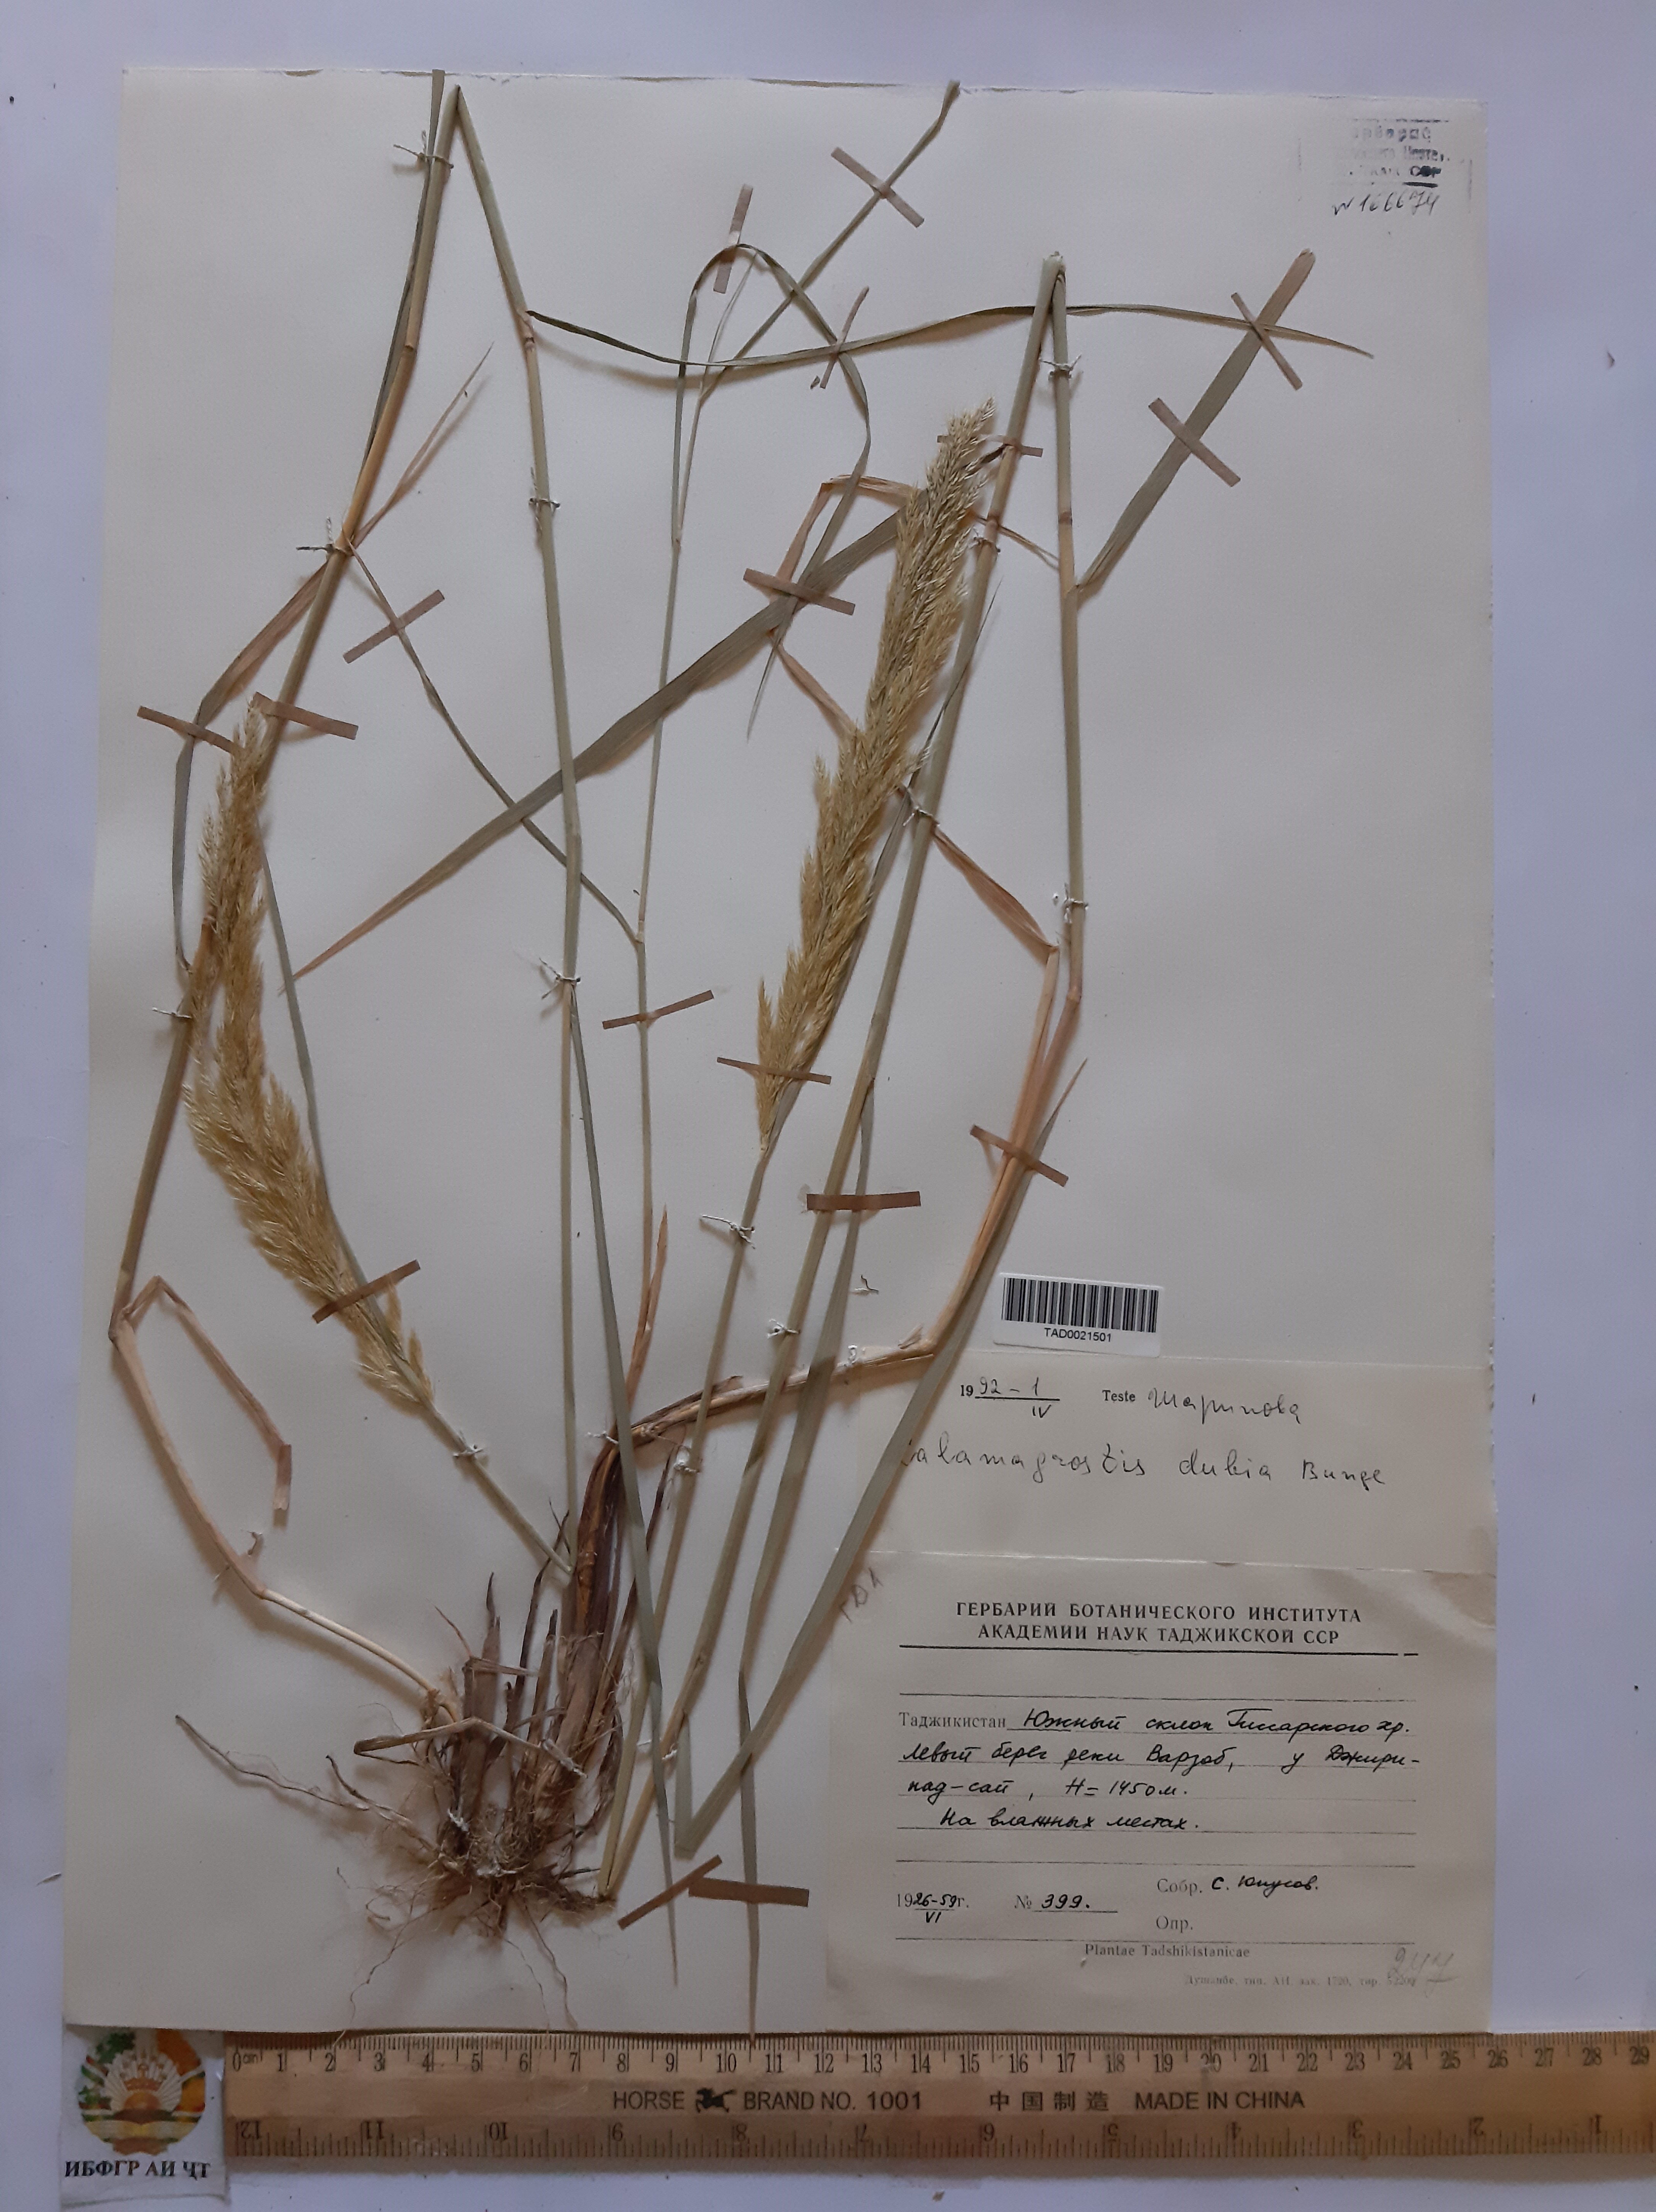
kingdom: Plantae
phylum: Tracheophyta
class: Liliopsida
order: Poales
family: Poaceae
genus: Calamagrostis
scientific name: Calamagrostis pseudophragmites
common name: Coastal small-reed
